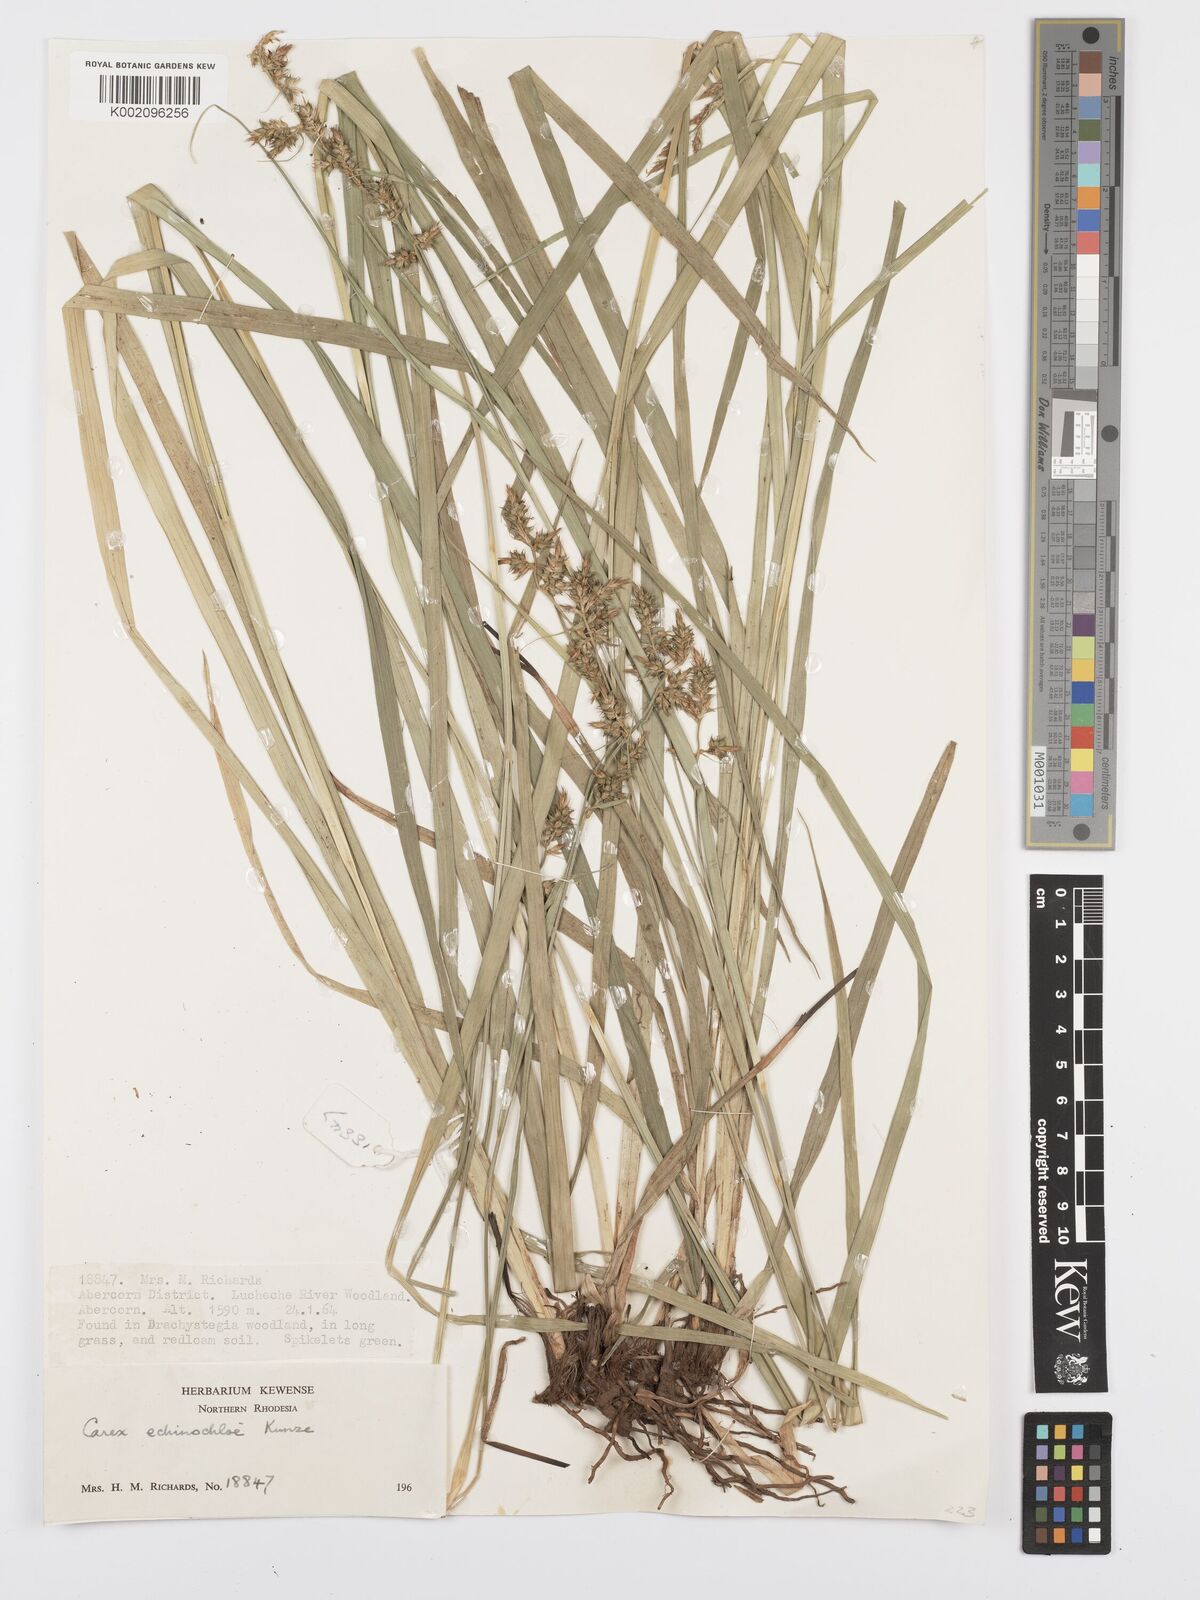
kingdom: Plantae
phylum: Tracheophyta
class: Liliopsida
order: Poales
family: Cyperaceae
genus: Carex
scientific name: Carex echinochloe
